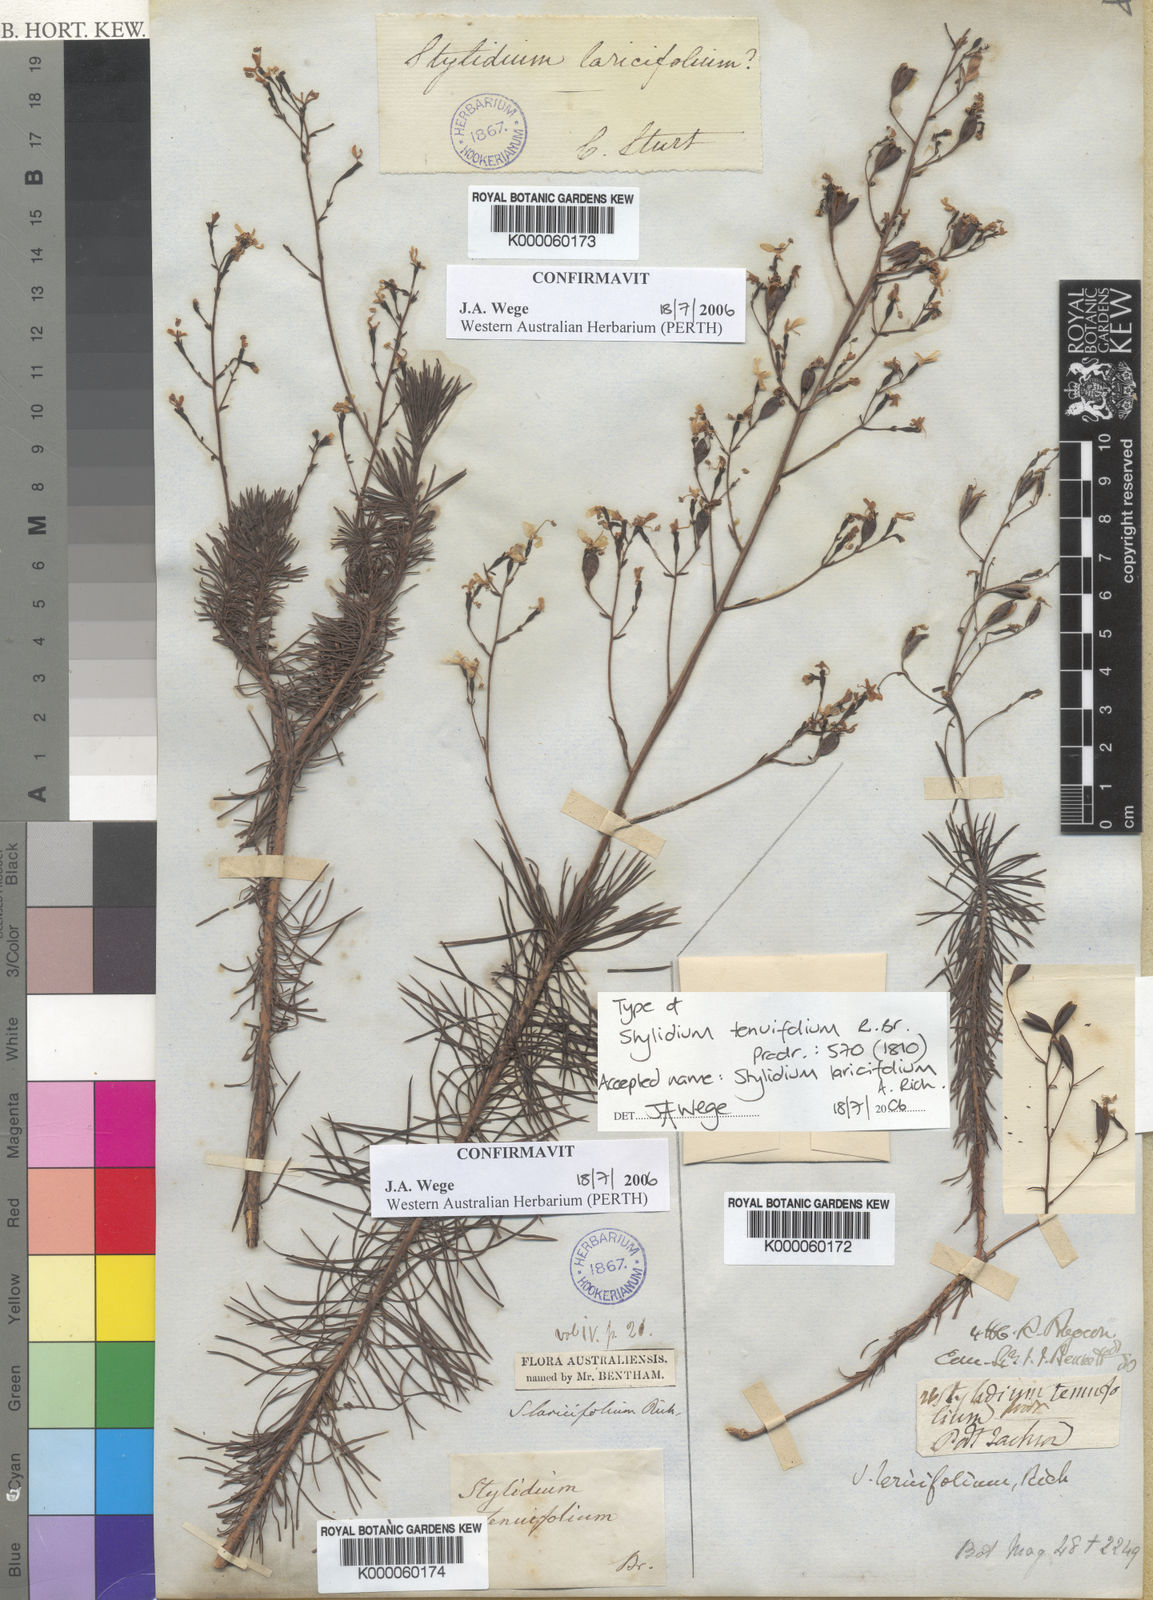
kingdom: Plantae
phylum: Tracheophyta
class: Magnoliopsida
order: Asterales
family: Stylidiaceae
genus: Stylidium
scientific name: Stylidium laricifolium
